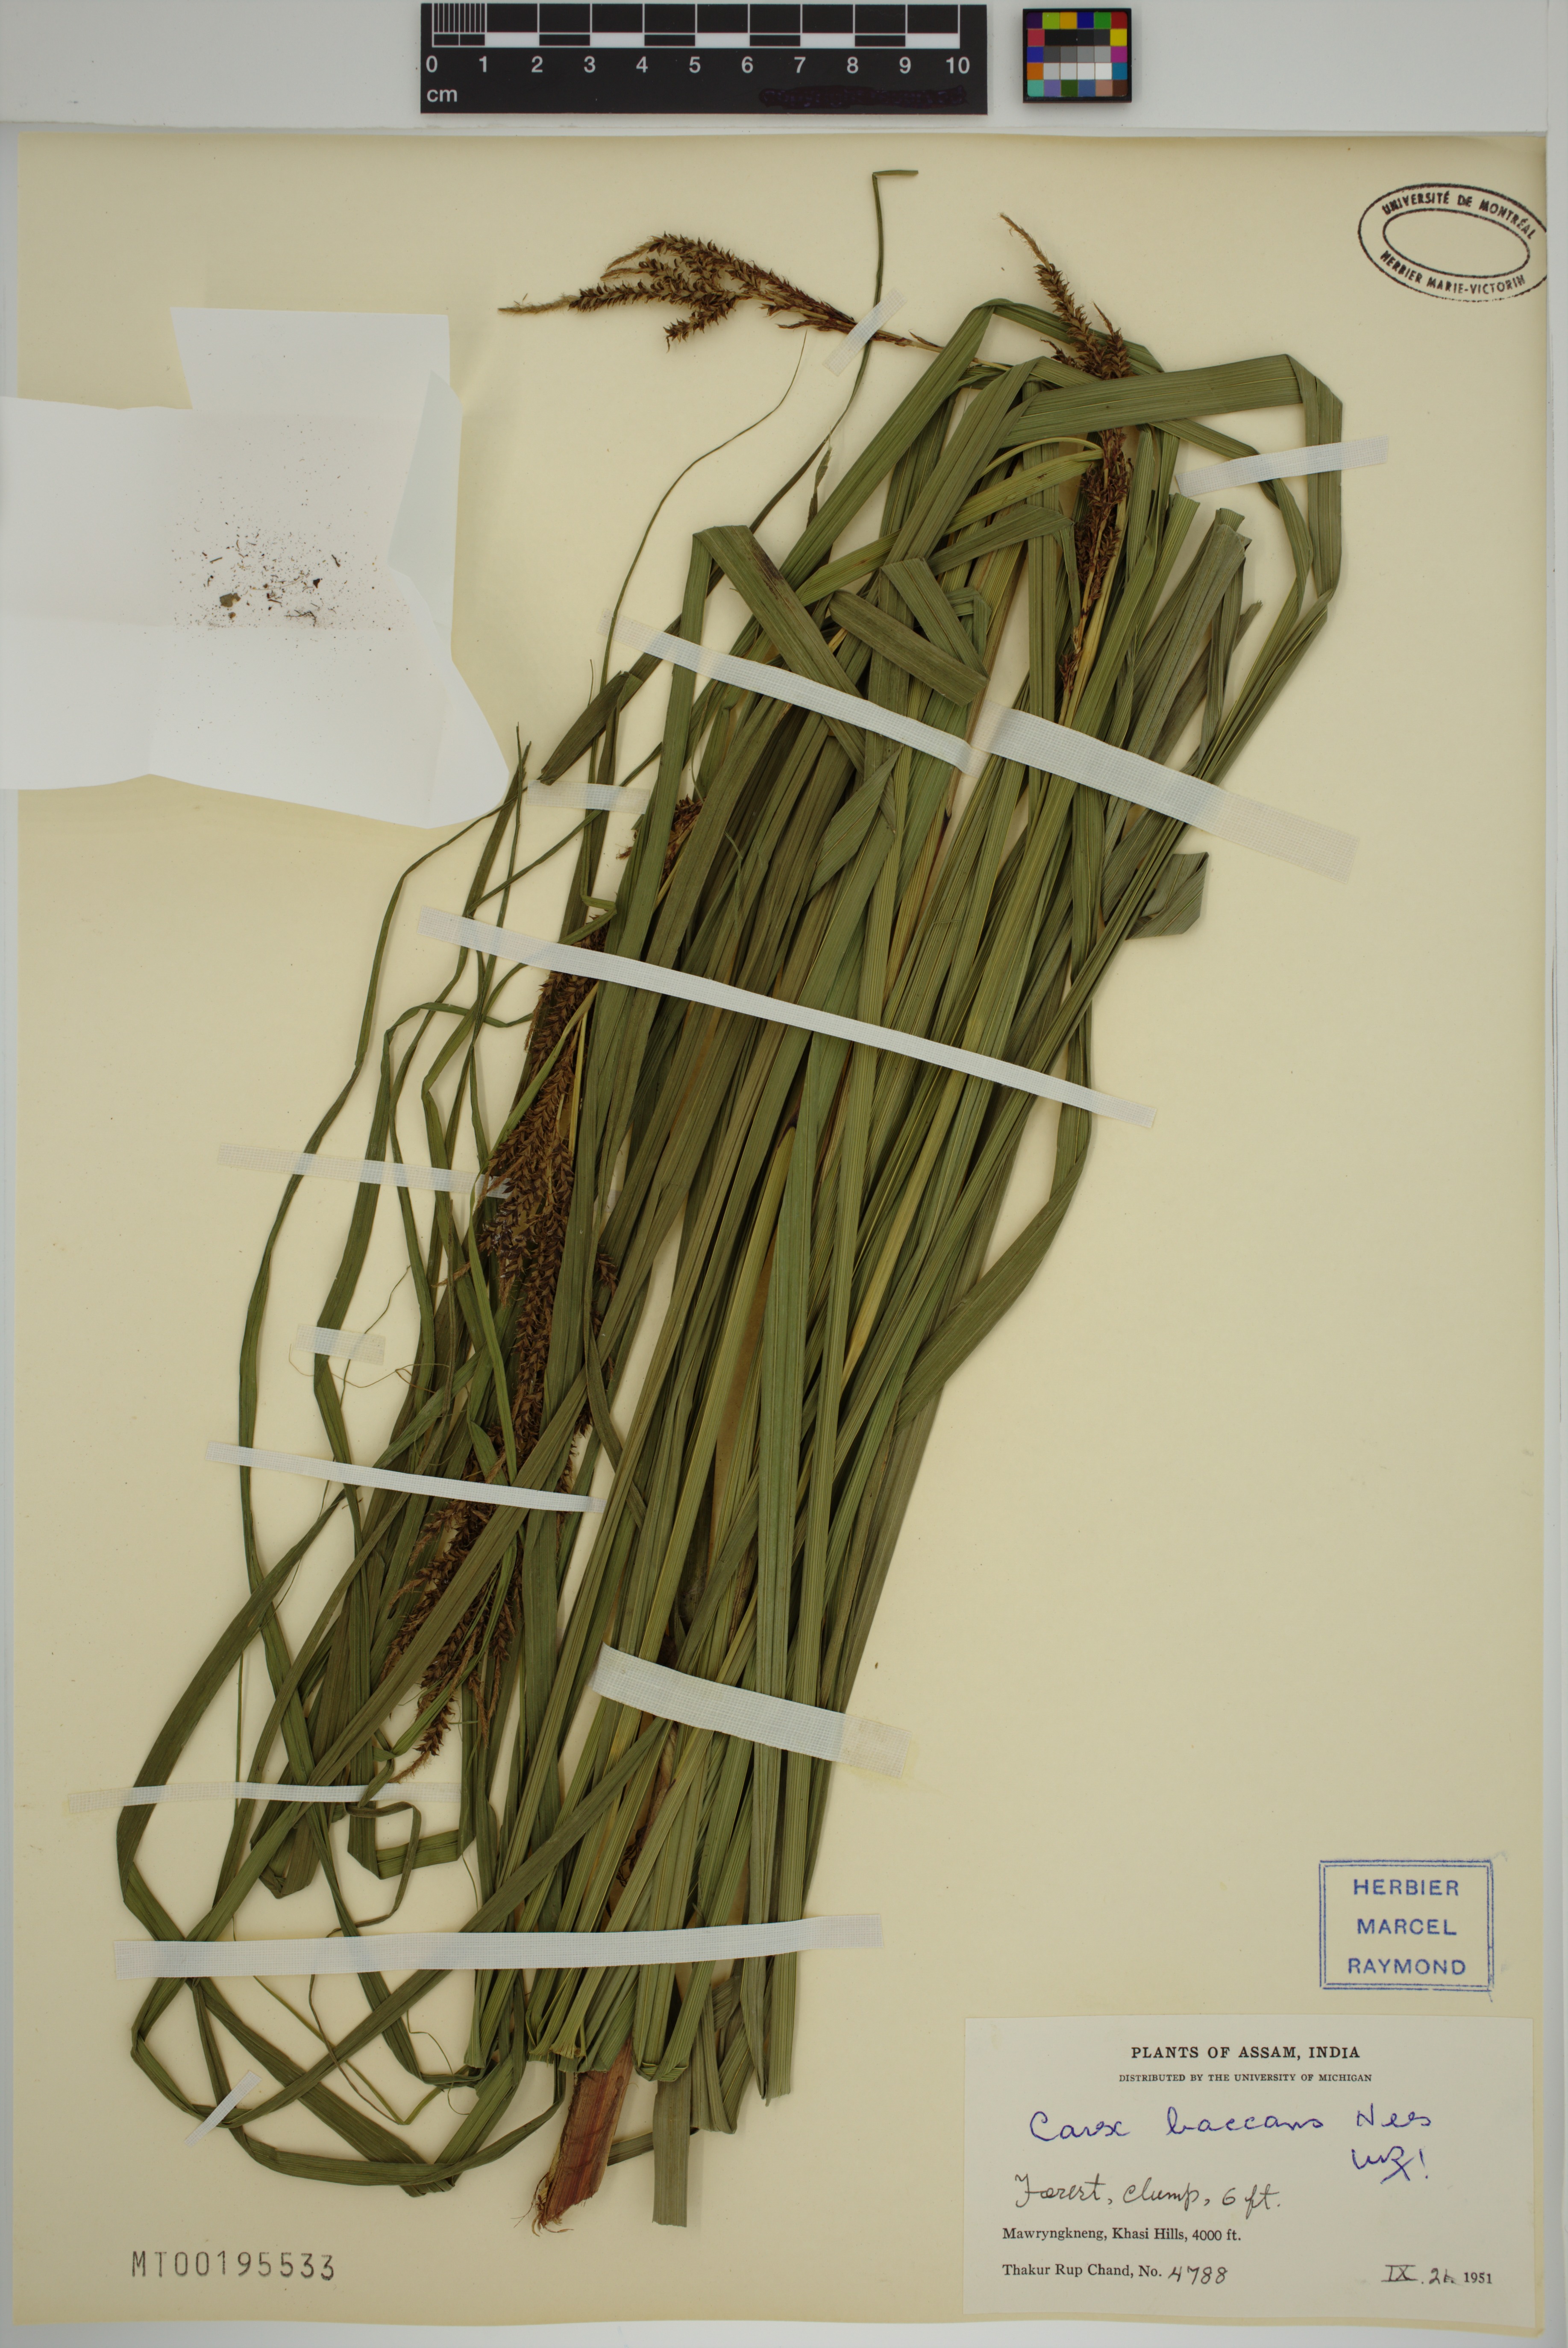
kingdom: Plantae
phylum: Tracheophyta
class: Liliopsida
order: Poales
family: Cyperaceae
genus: Carex
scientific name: Carex baccans
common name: Crimson seeded sedge
